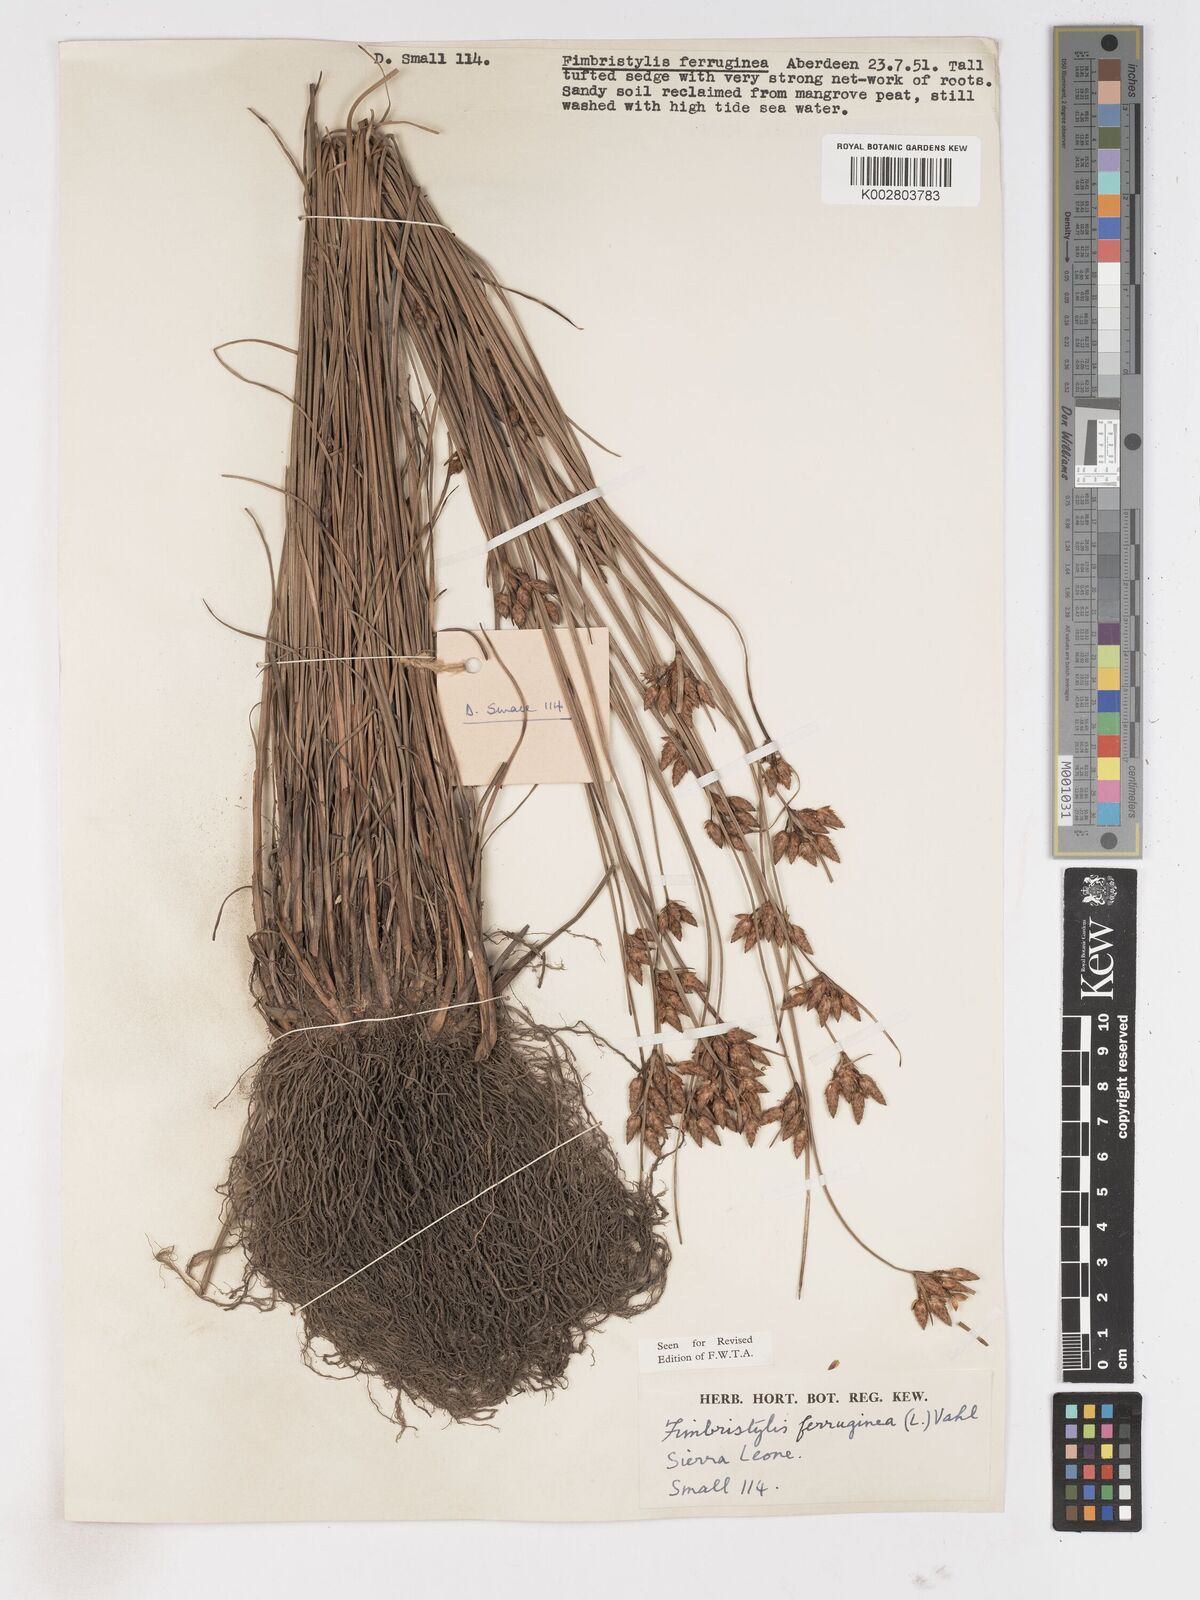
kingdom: Plantae
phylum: Tracheophyta
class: Liliopsida
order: Poales
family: Cyperaceae
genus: Fimbristylis
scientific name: Fimbristylis ferruginea
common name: West indian fimbry
